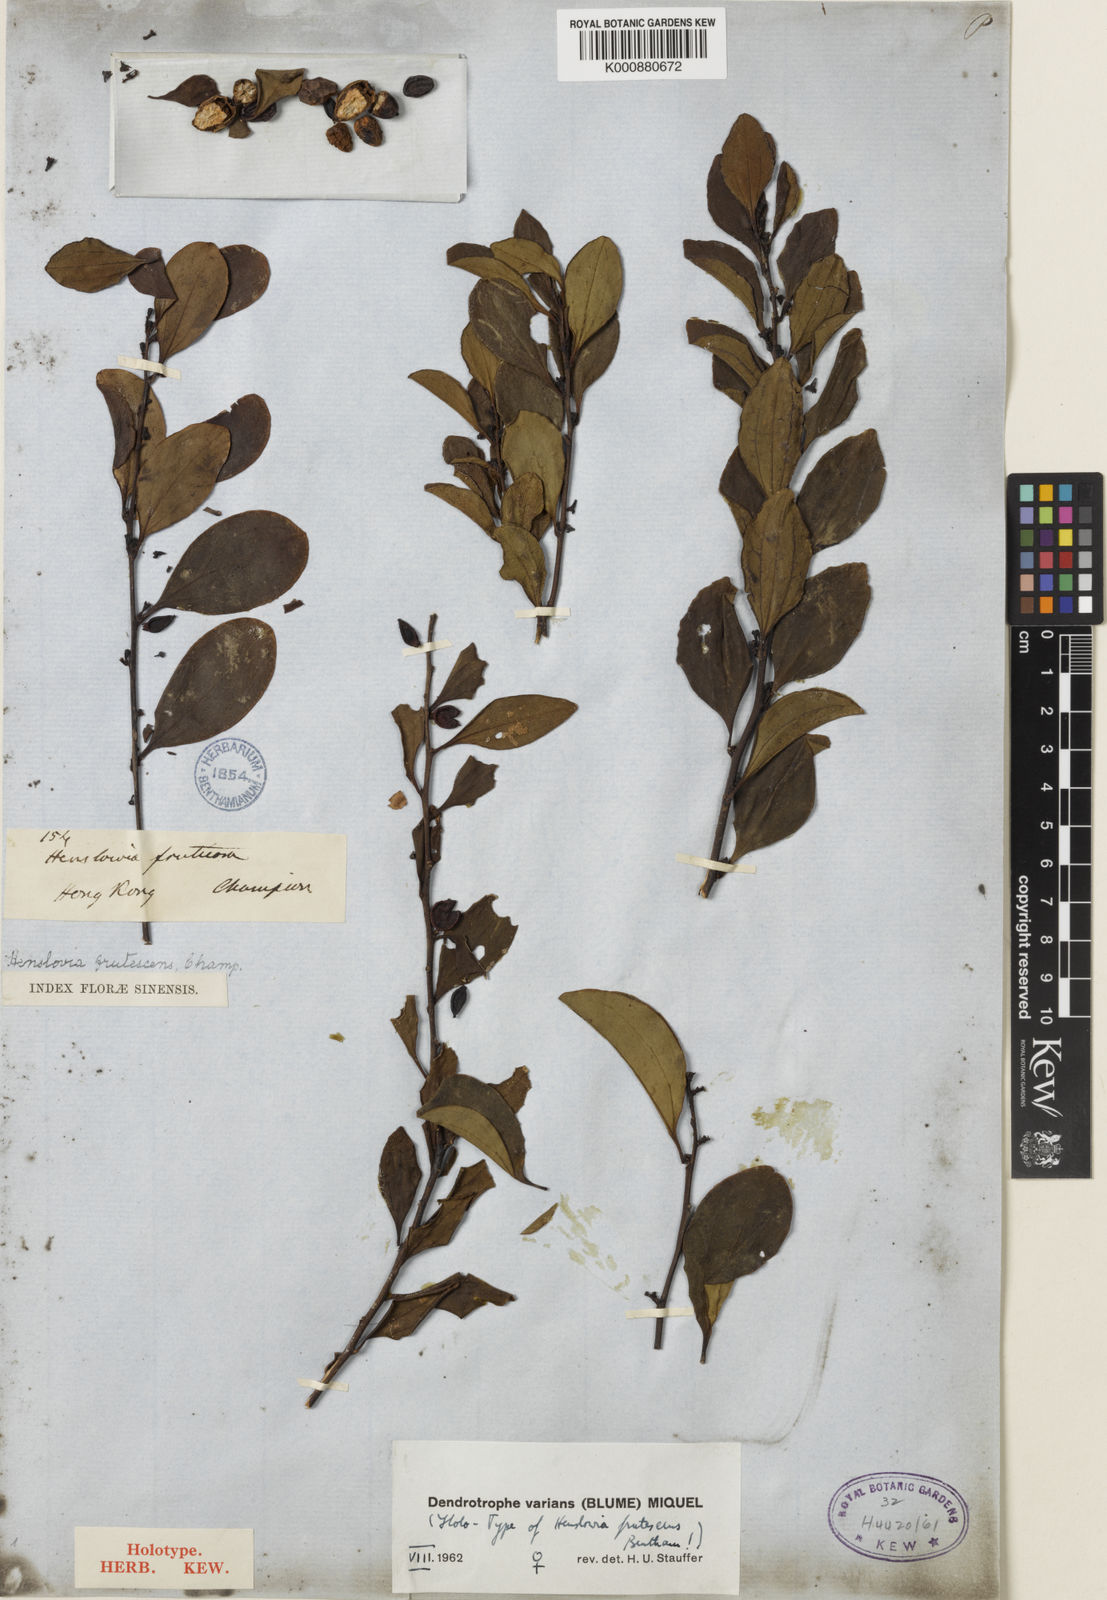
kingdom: Plantae
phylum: Tracheophyta
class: Magnoliopsida
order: Santalales
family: Amphorogynaceae
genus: Dendrotrophe
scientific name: Dendrotrophe varians
